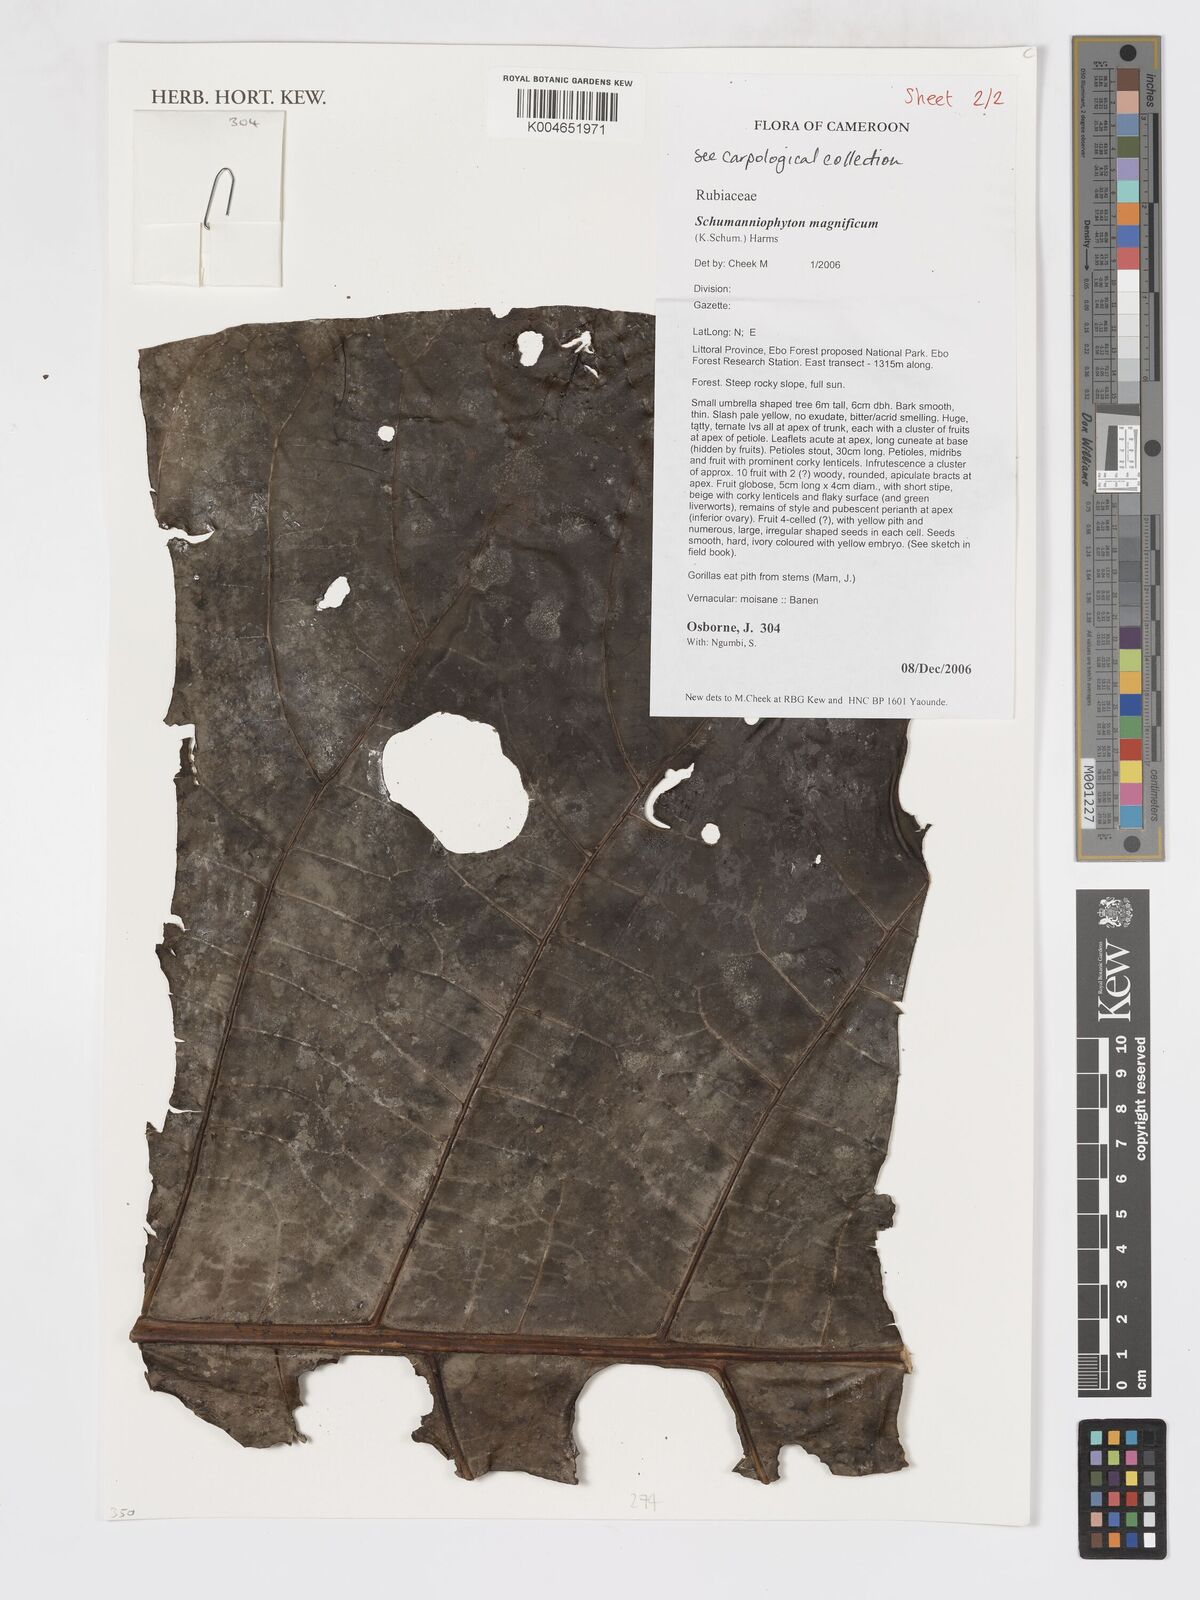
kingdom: Plantae
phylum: Tracheophyta
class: Magnoliopsida
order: Gentianales
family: Rubiaceae
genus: Schumanniophyton
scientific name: Schumanniophyton magnificum
